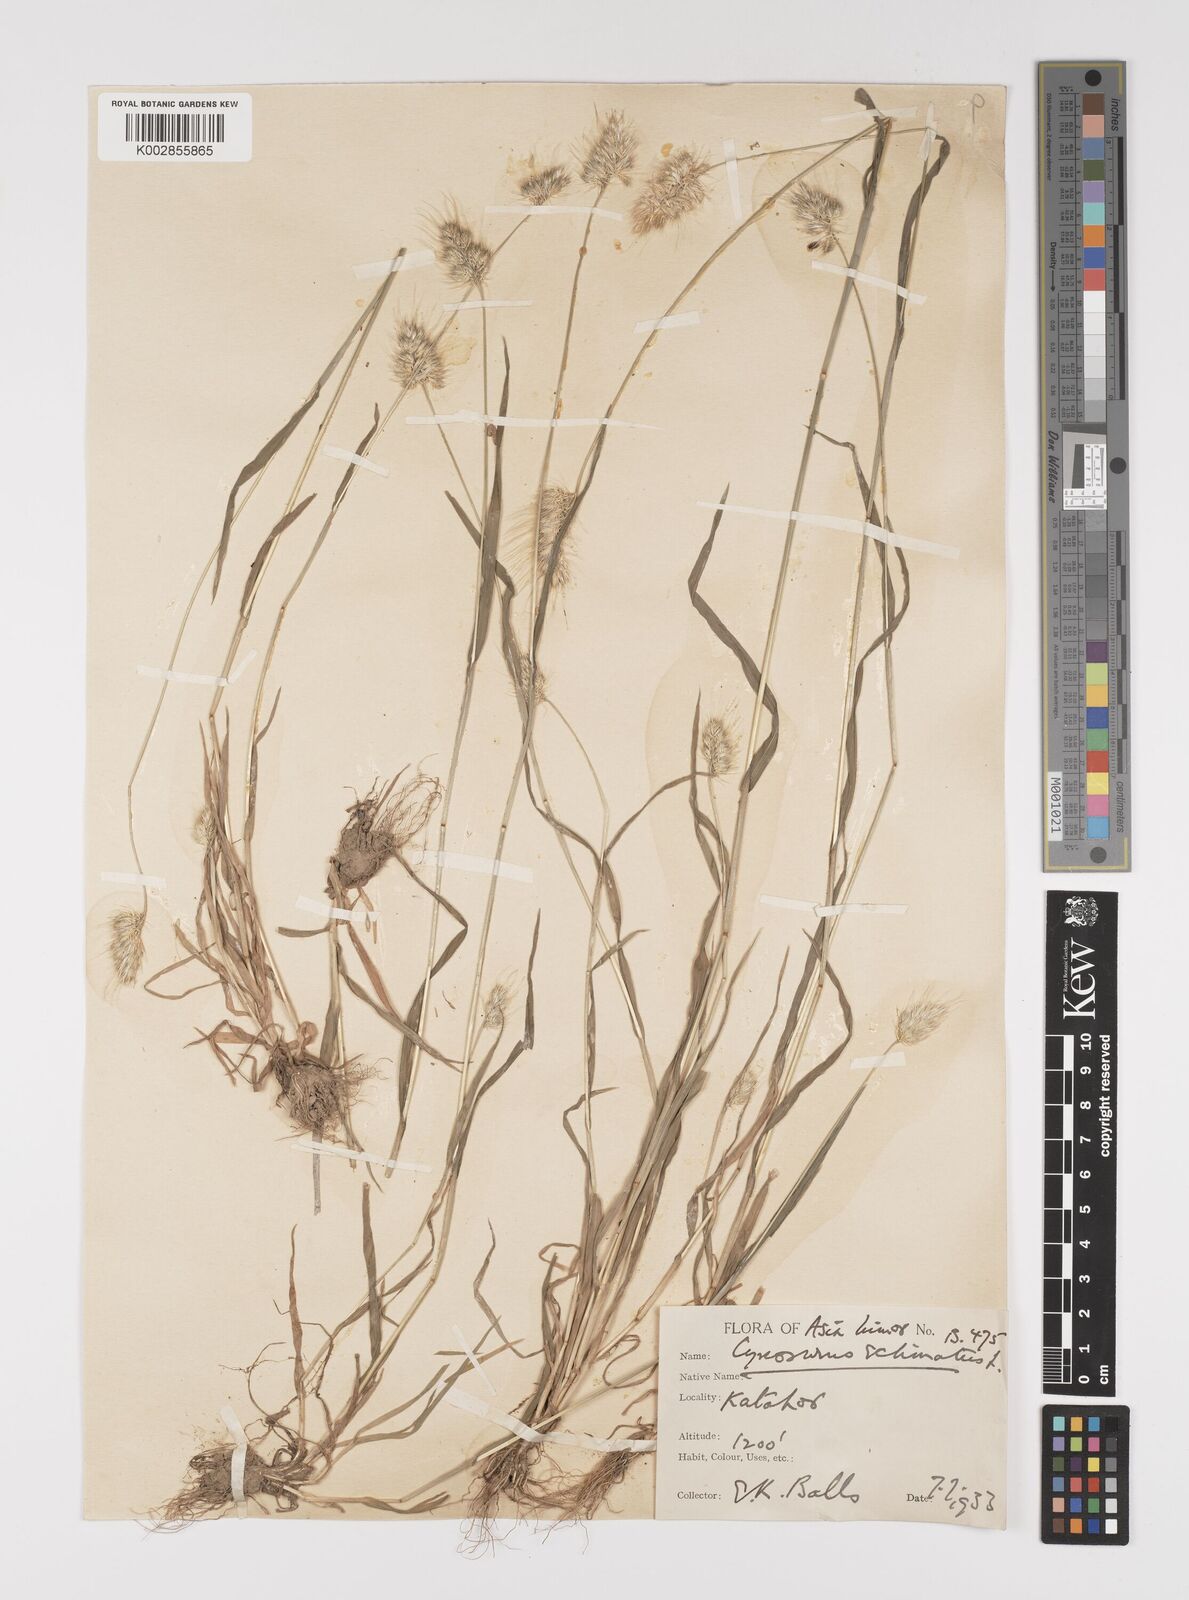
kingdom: Plantae
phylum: Tracheophyta
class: Liliopsida
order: Poales
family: Poaceae
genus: Cynosurus
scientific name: Cynosurus echinatus
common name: Rough dog's-tail
